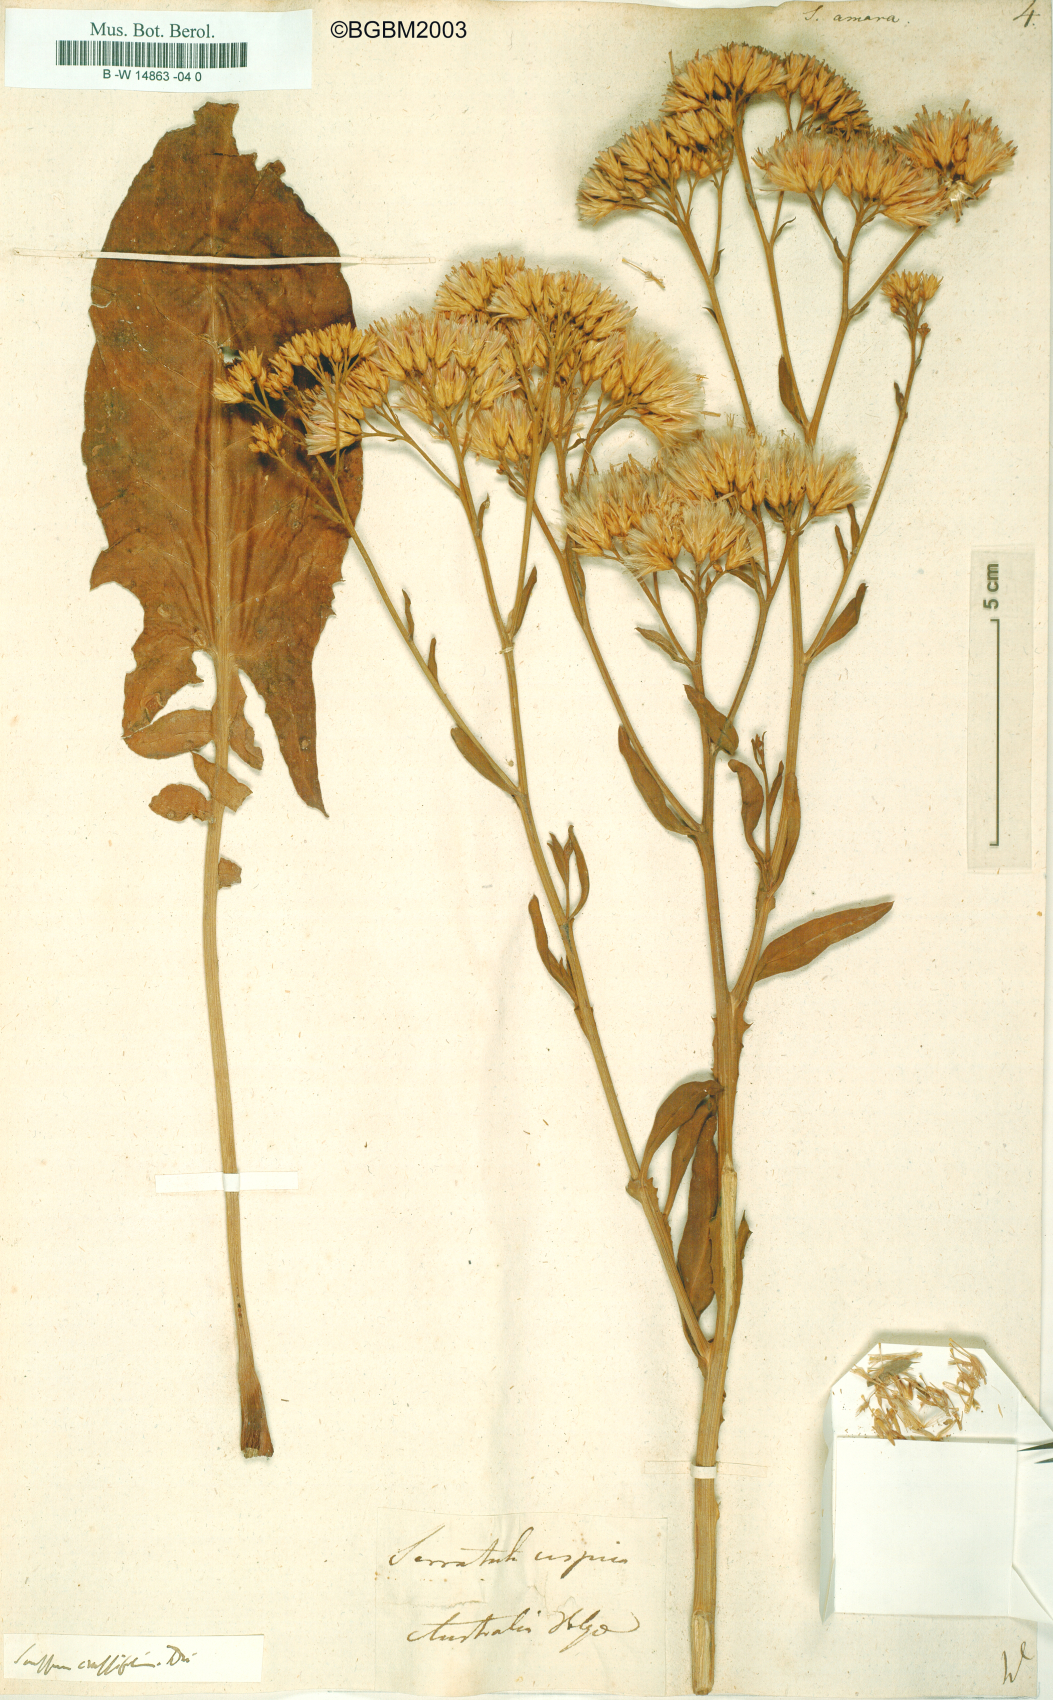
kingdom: Plantae
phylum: Tracheophyta
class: Magnoliopsida
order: Asterales
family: Asteraceae
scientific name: Asteraceae
